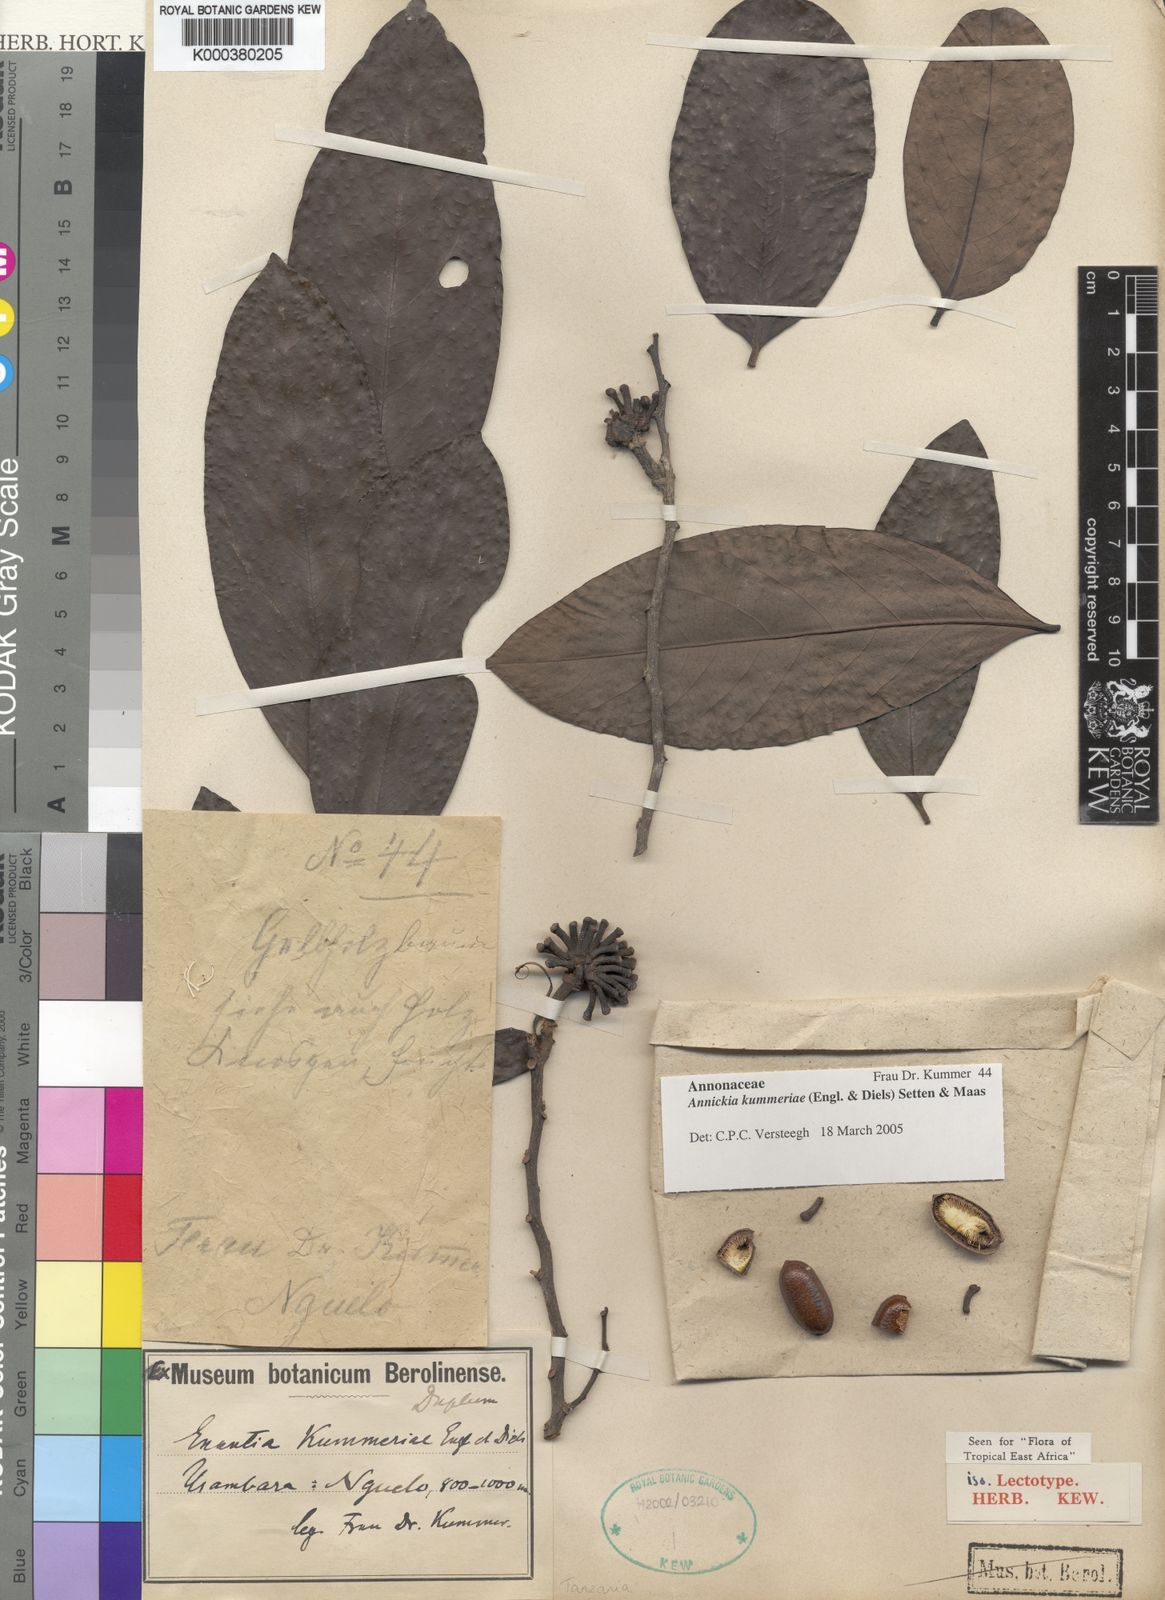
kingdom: Plantae
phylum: Tracheophyta
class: Magnoliopsida
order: Magnoliales
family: Annonaceae
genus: Annickia
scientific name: Annickia kummerae
